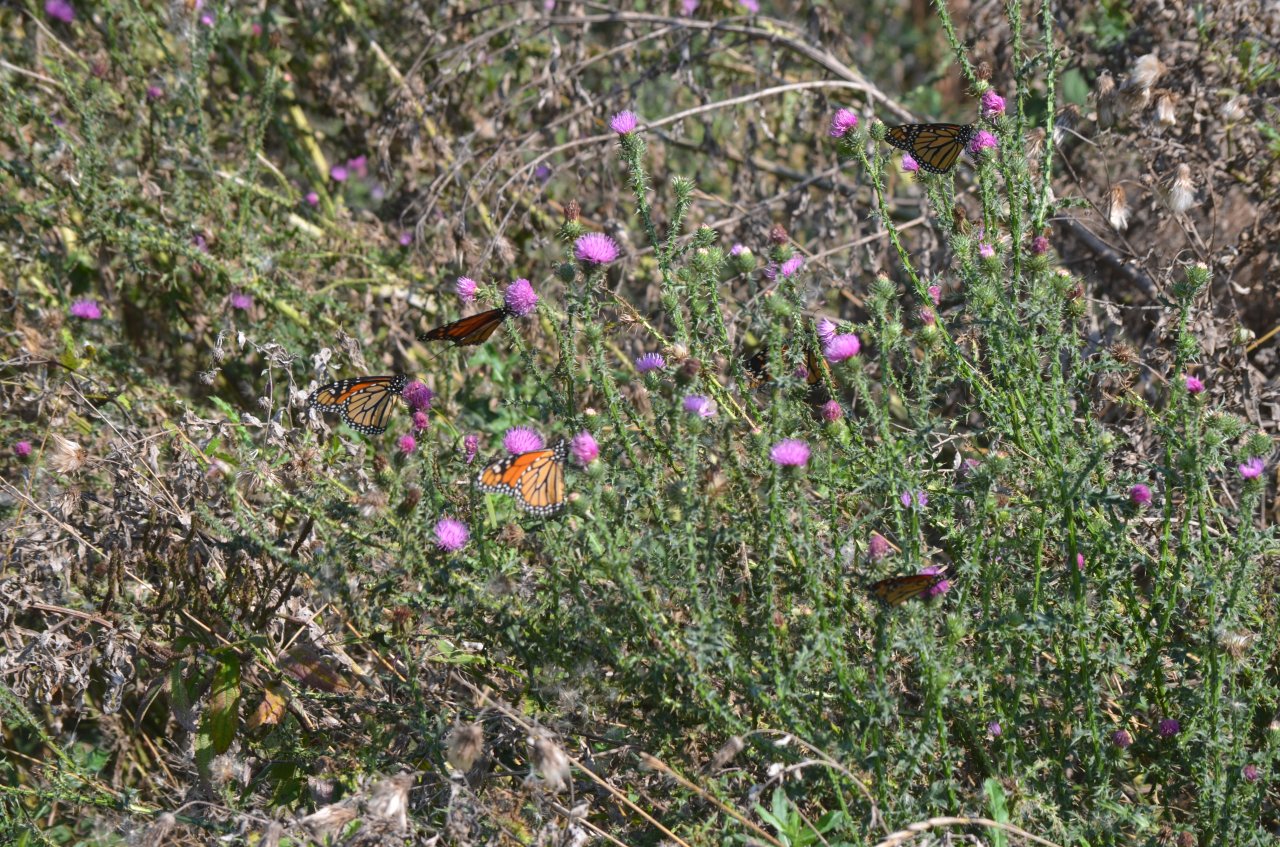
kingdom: Animalia
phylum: Arthropoda
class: Insecta
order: Lepidoptera
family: Nymphalidae
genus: Danaus
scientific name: Danaus plexippus
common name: Monarch
